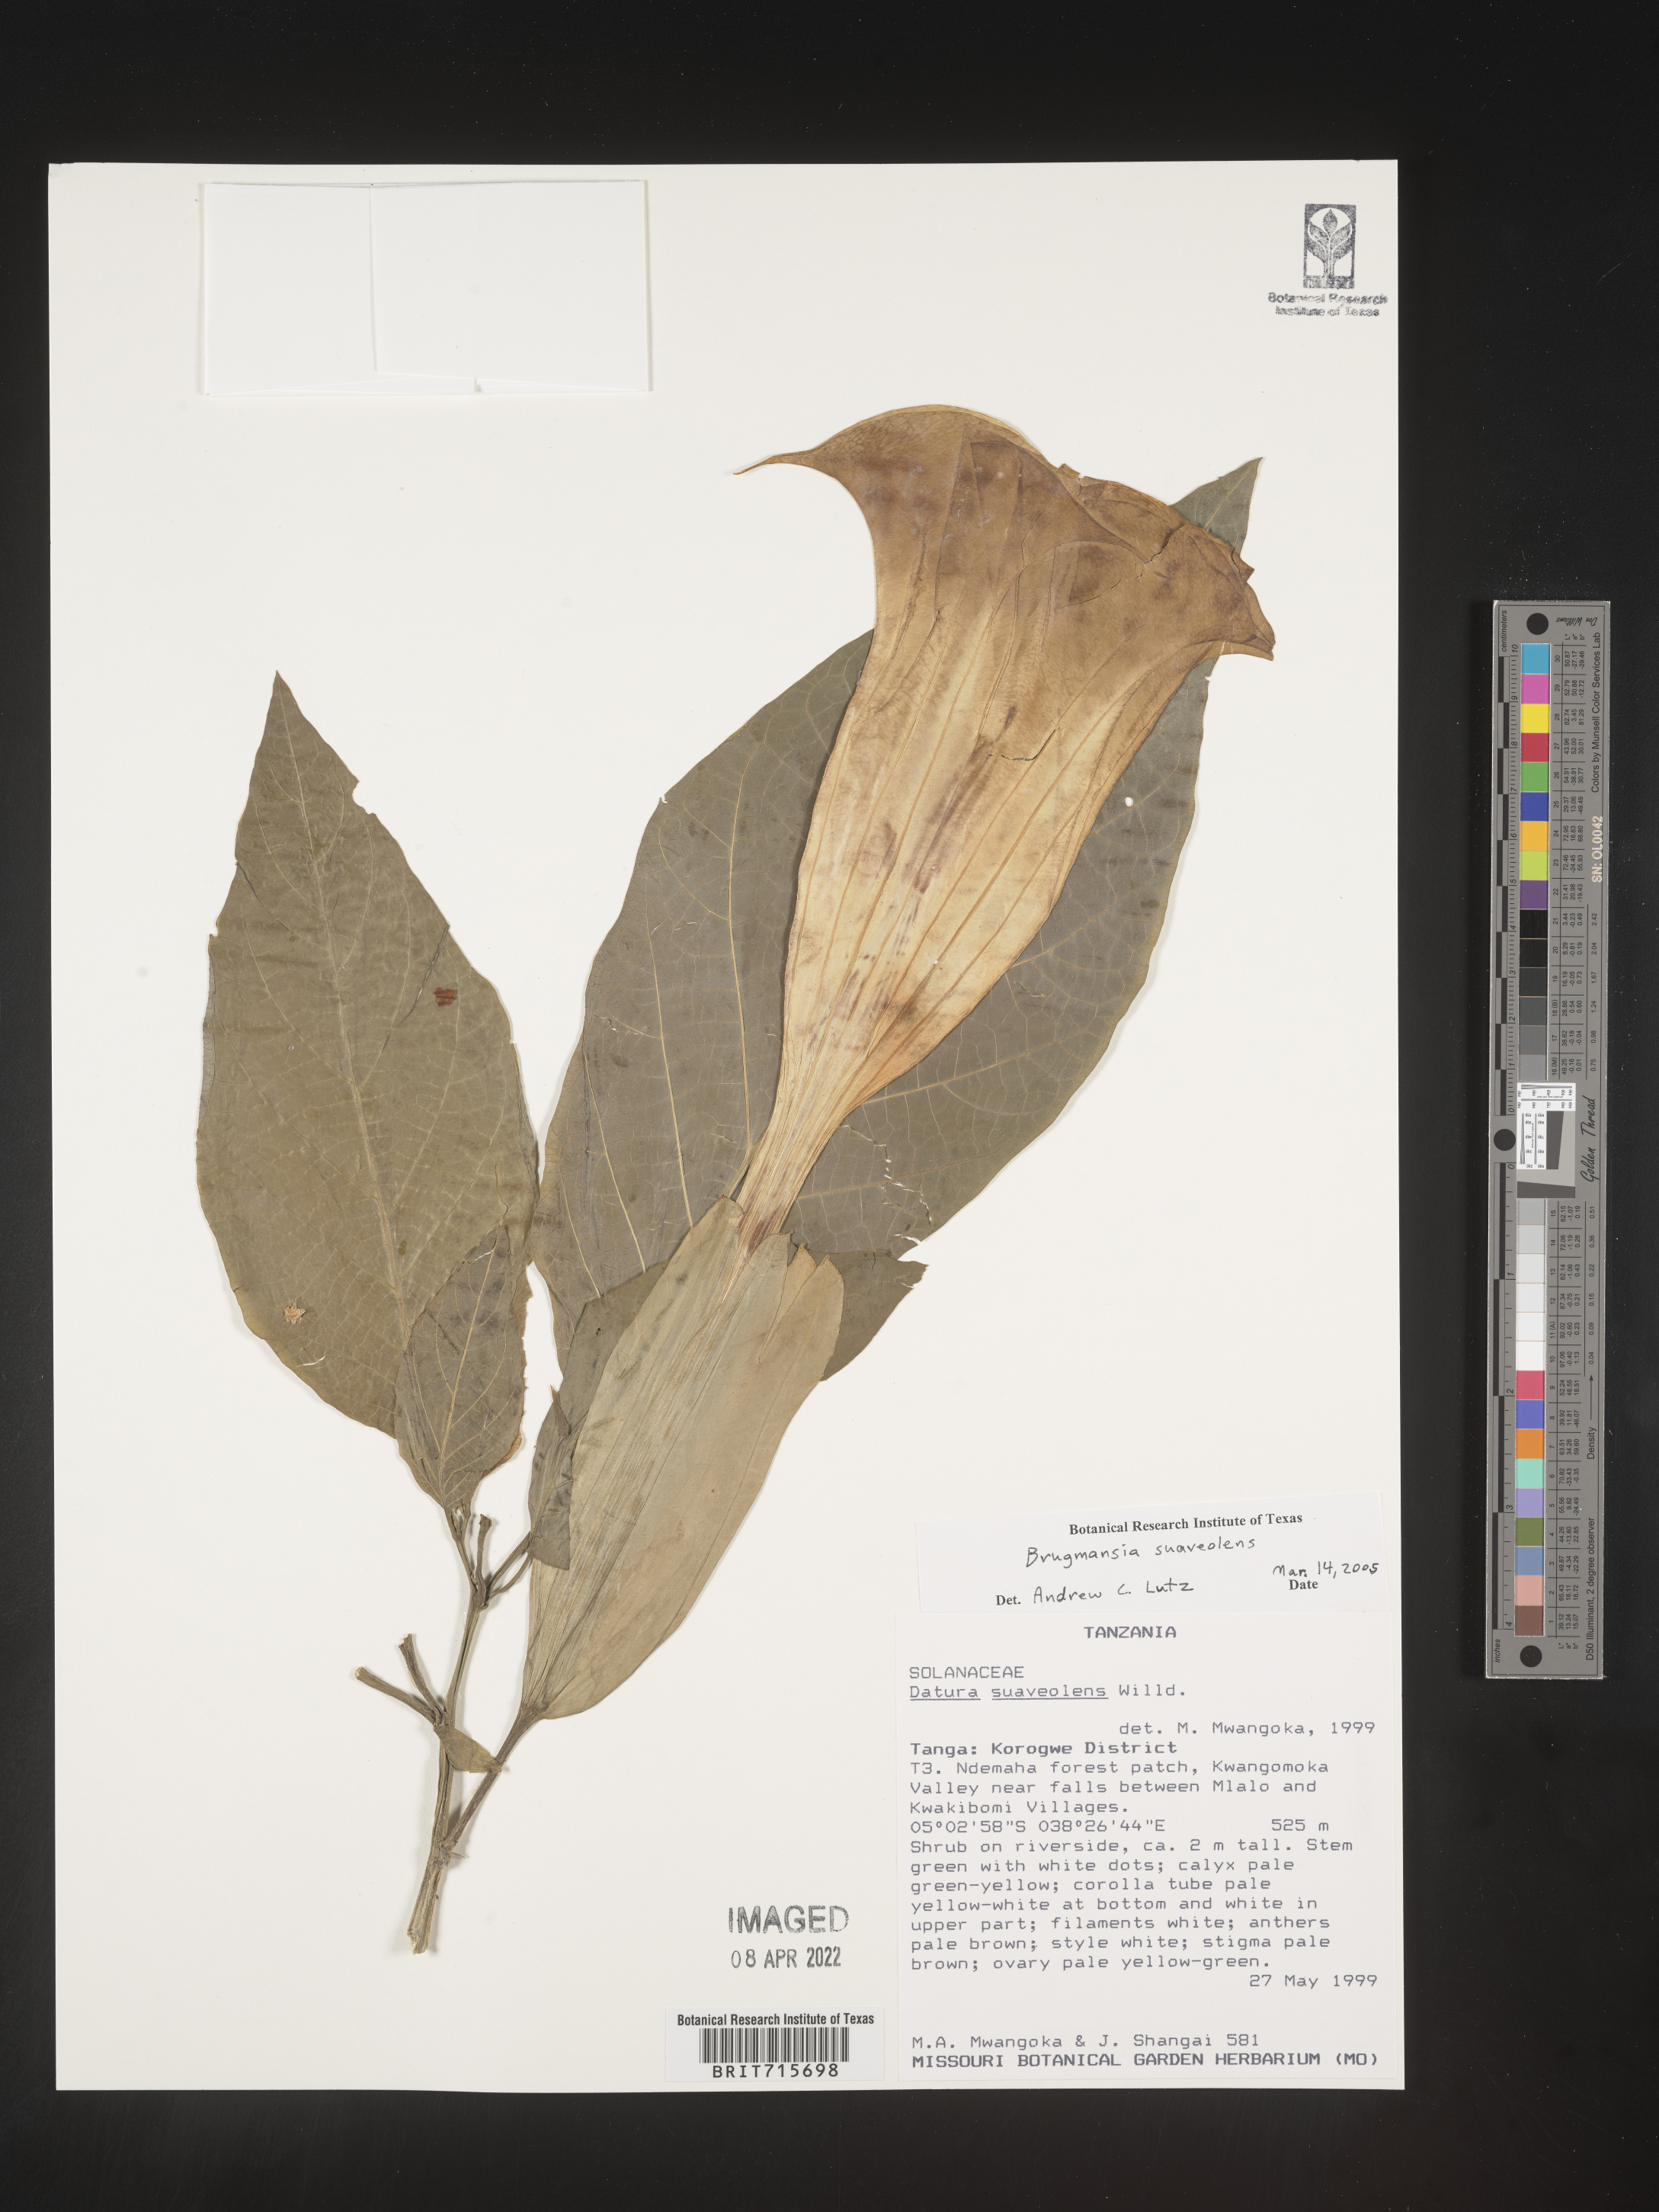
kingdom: Plantae
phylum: Tracheophyta
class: Magnoliopsida
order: Solanales
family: Solanaceae
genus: Brugmansia
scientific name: Brugmansia
